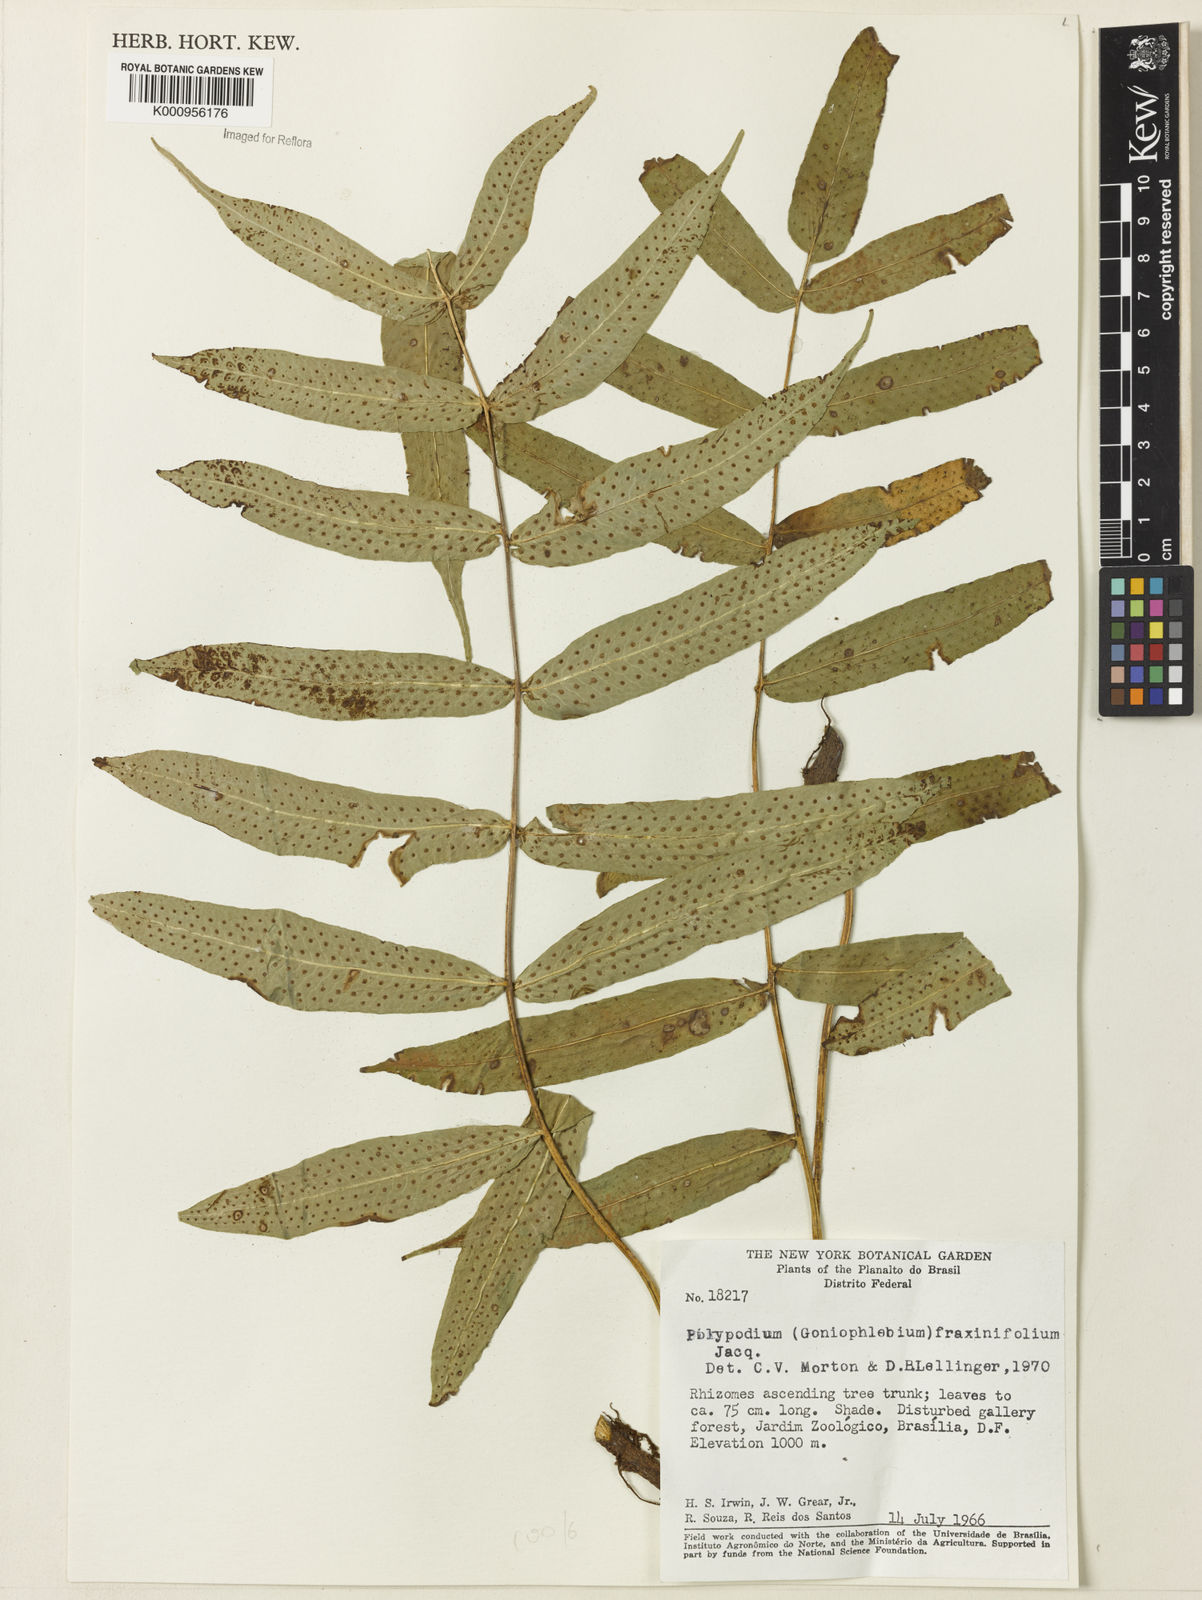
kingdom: Plantae
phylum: Tracheophyta
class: Polypodiopsida
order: Polypodiales
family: Polypodiaceae
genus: Serpocaulon
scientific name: Serpocaulon fraxinifolium
